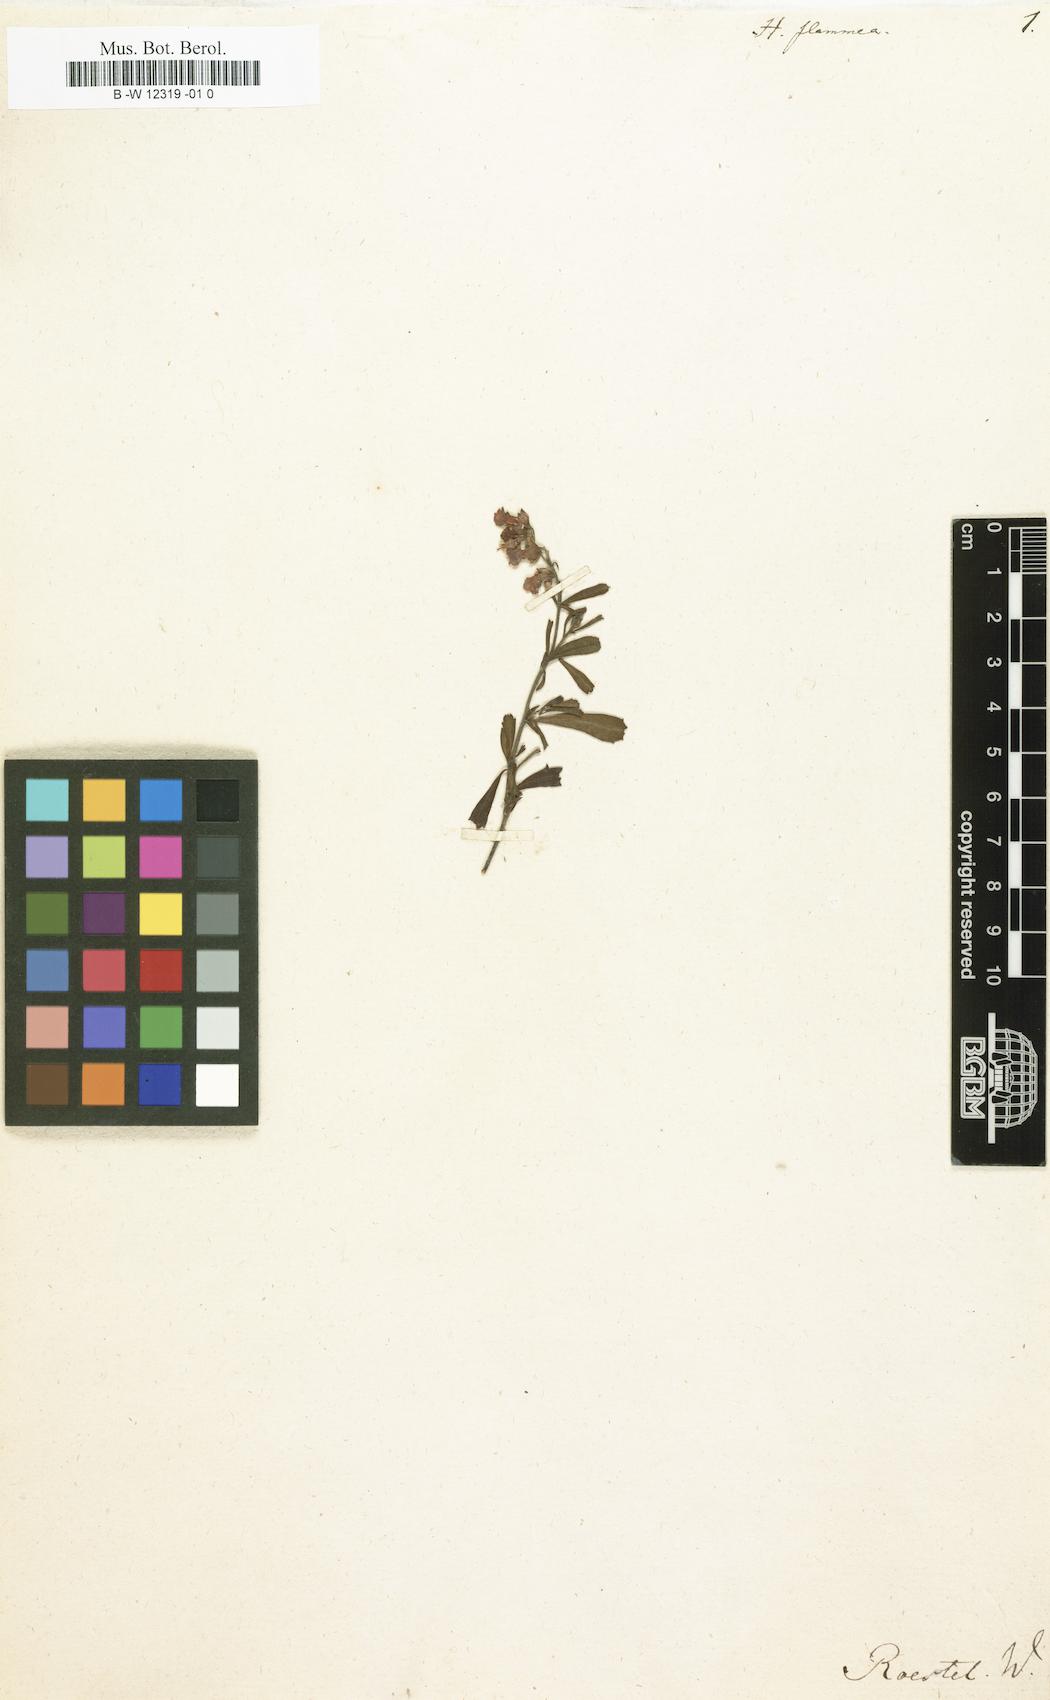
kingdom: Plantae
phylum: Tracheophyta
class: Magnoliopsida
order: Malvales
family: Malvaceae
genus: Hermannia
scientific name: Hermannia flammea
